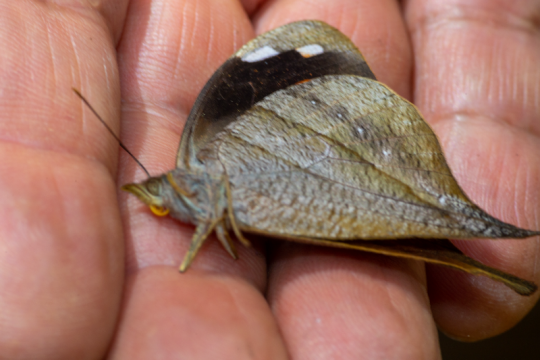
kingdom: Animalia
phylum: Arthropoda
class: Insecta
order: Lepidoptera
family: Nymphalidae
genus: Dynastor
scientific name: Dynastor darius
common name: Daring Owl-Butterfly
